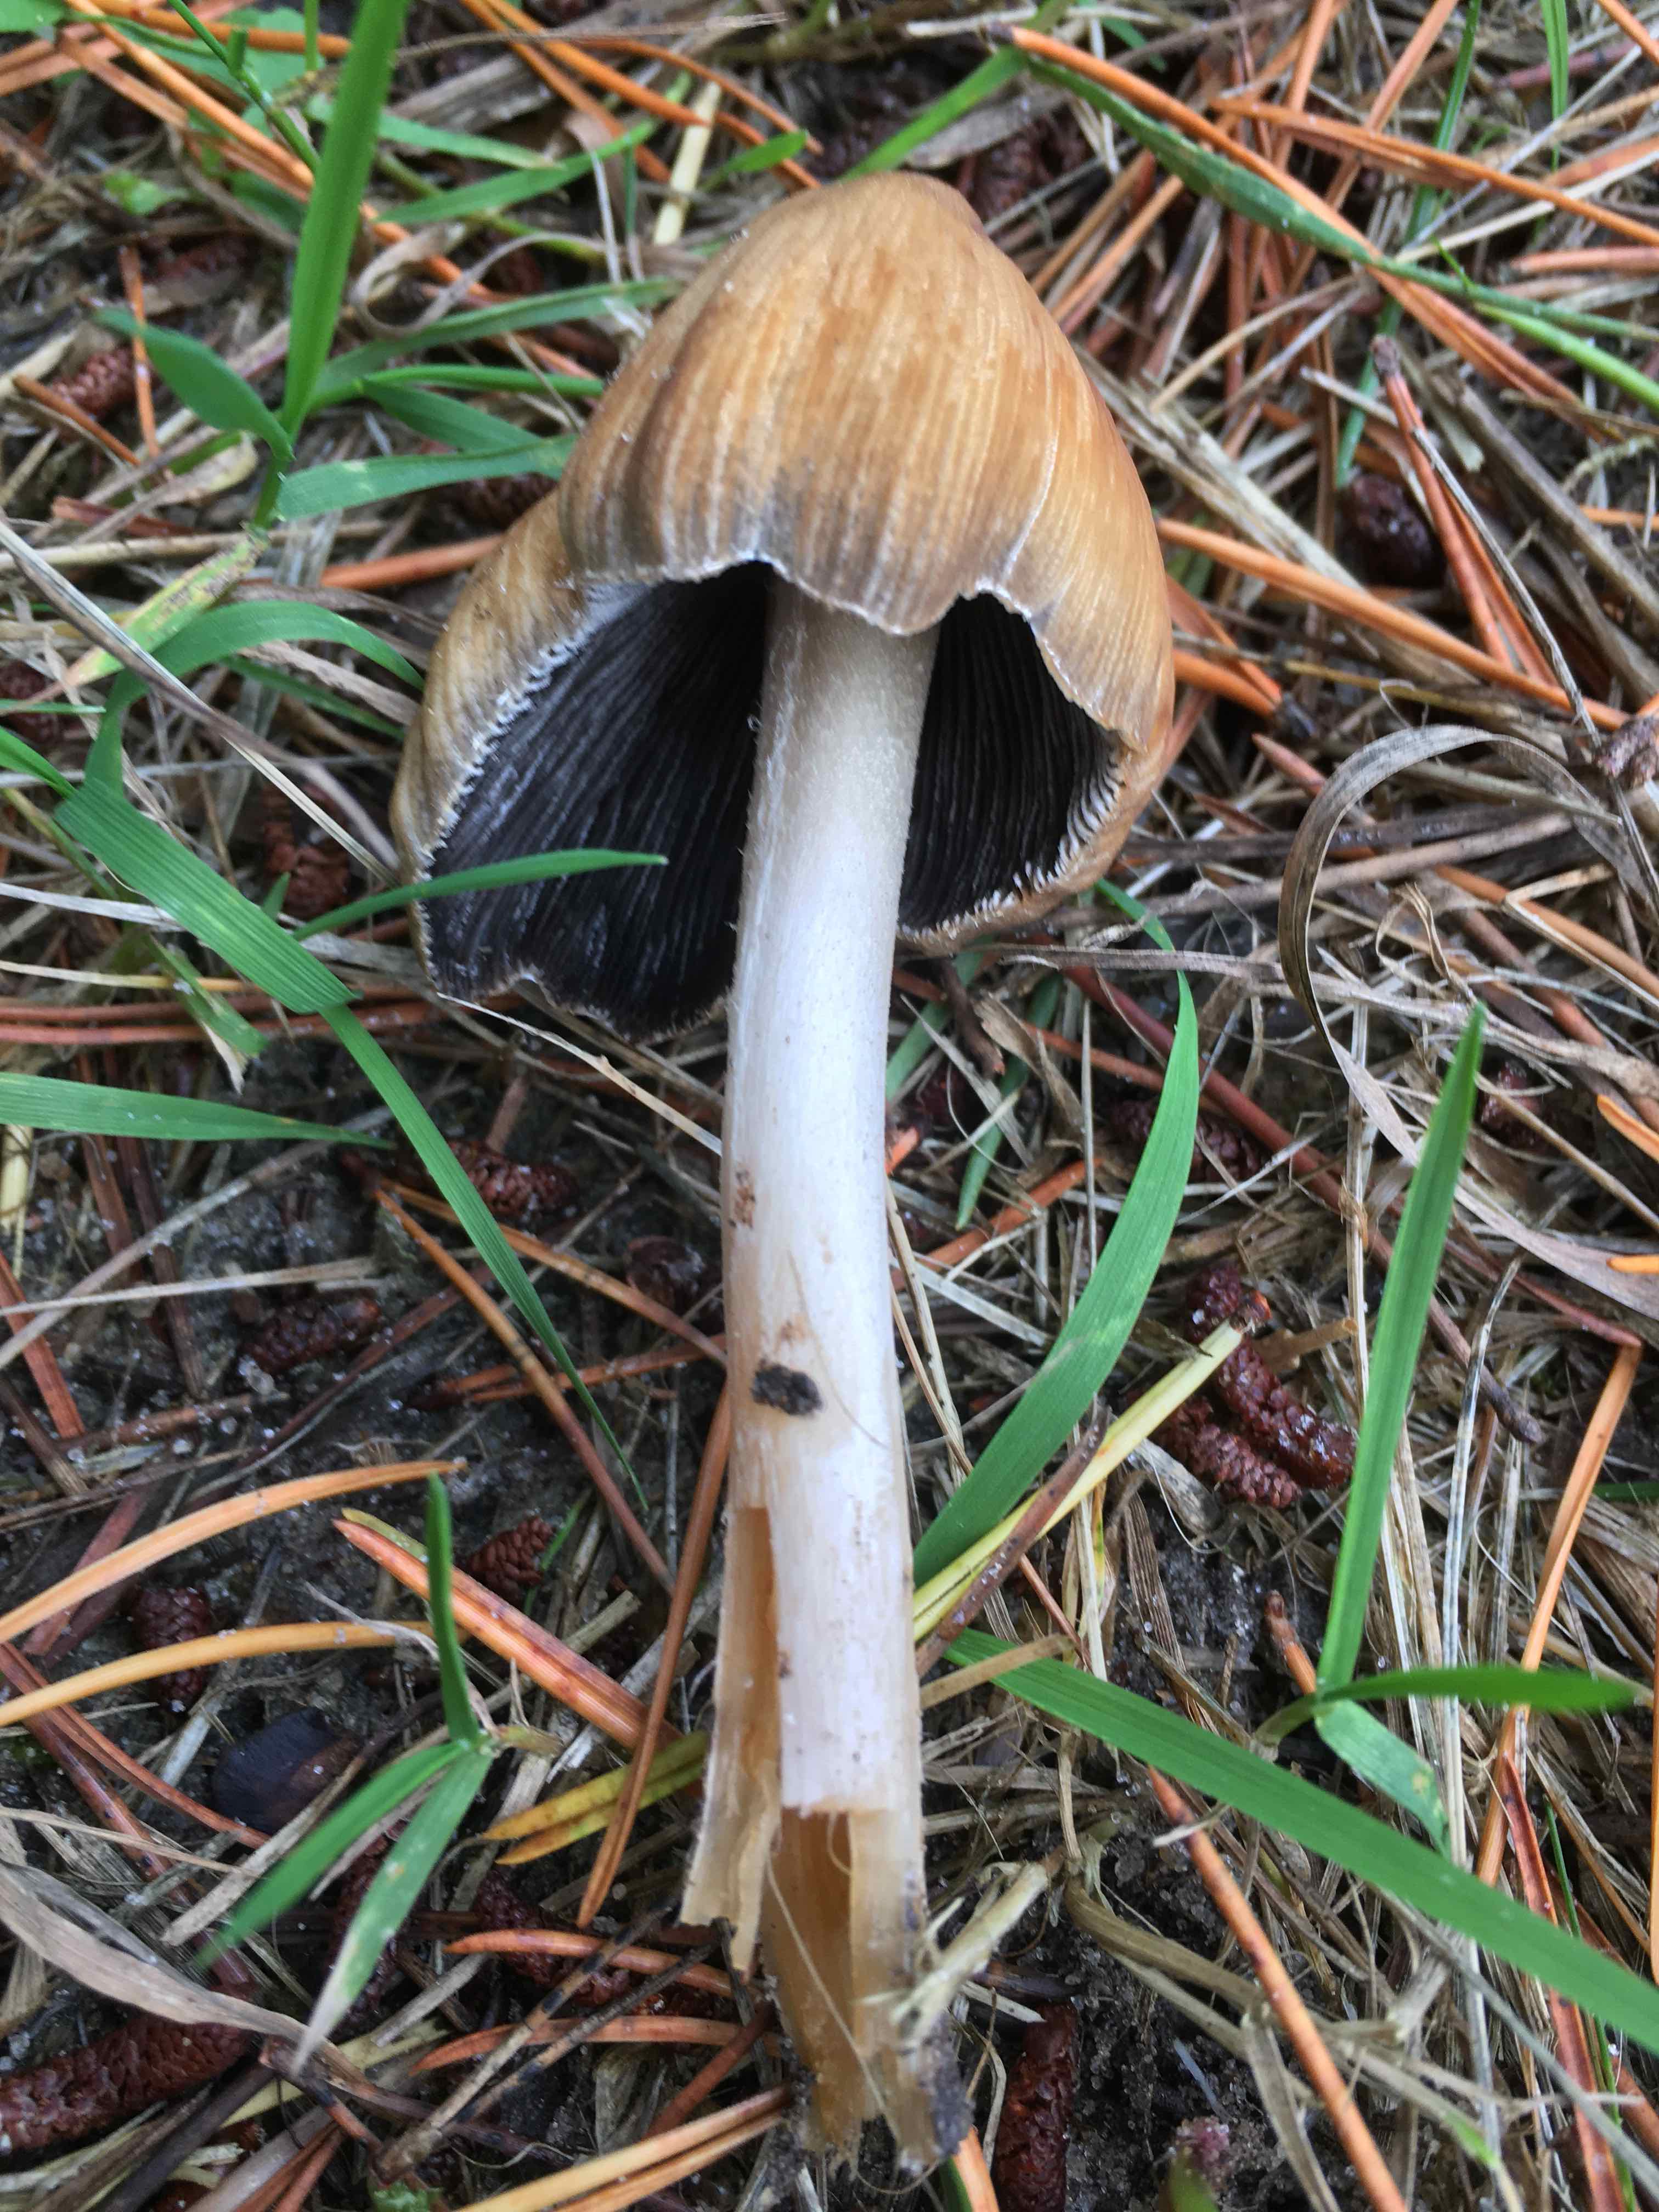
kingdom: Fungi
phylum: Basidiomycota
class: Agaricomycetes
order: Agaricales
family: Psathyrellaceae
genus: Coprinellus
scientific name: Coprinellus
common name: blækhat
